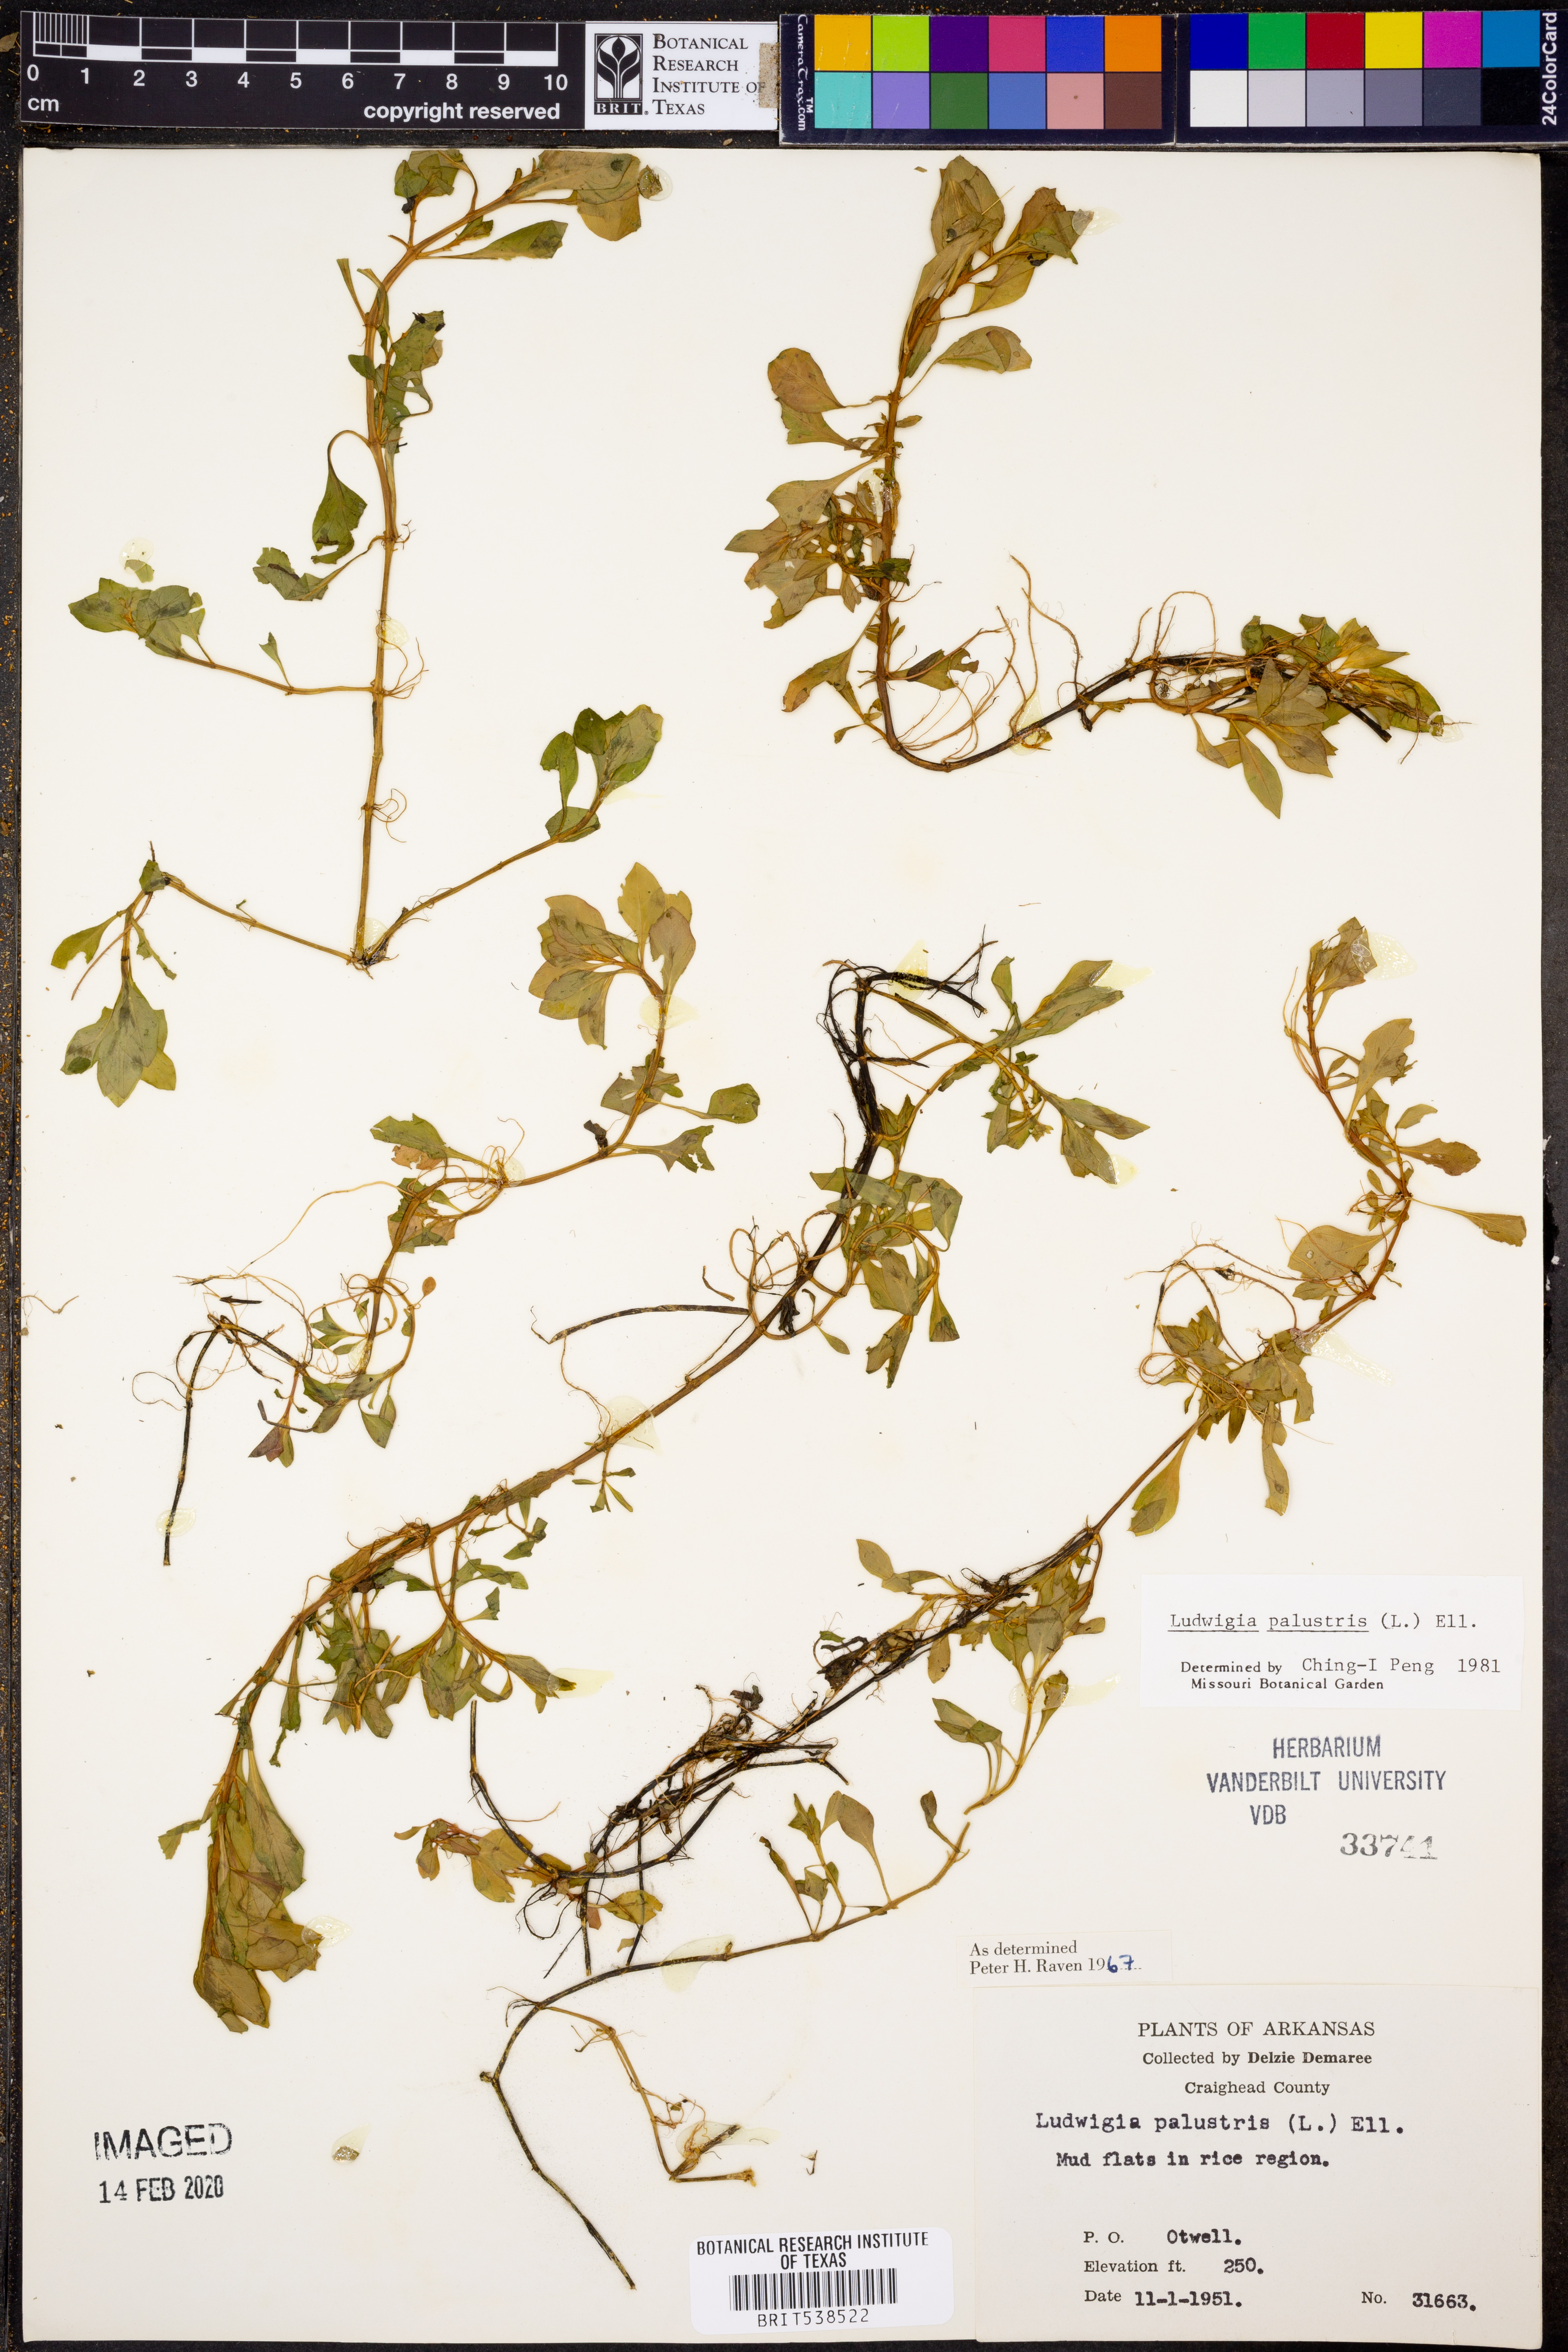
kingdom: Plantae
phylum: Tracheophyta
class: Magnoliopsida
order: Myrtales
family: Onagraceae
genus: Ludwigia
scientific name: Ludwigia palustris
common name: Hampshire-purslane
